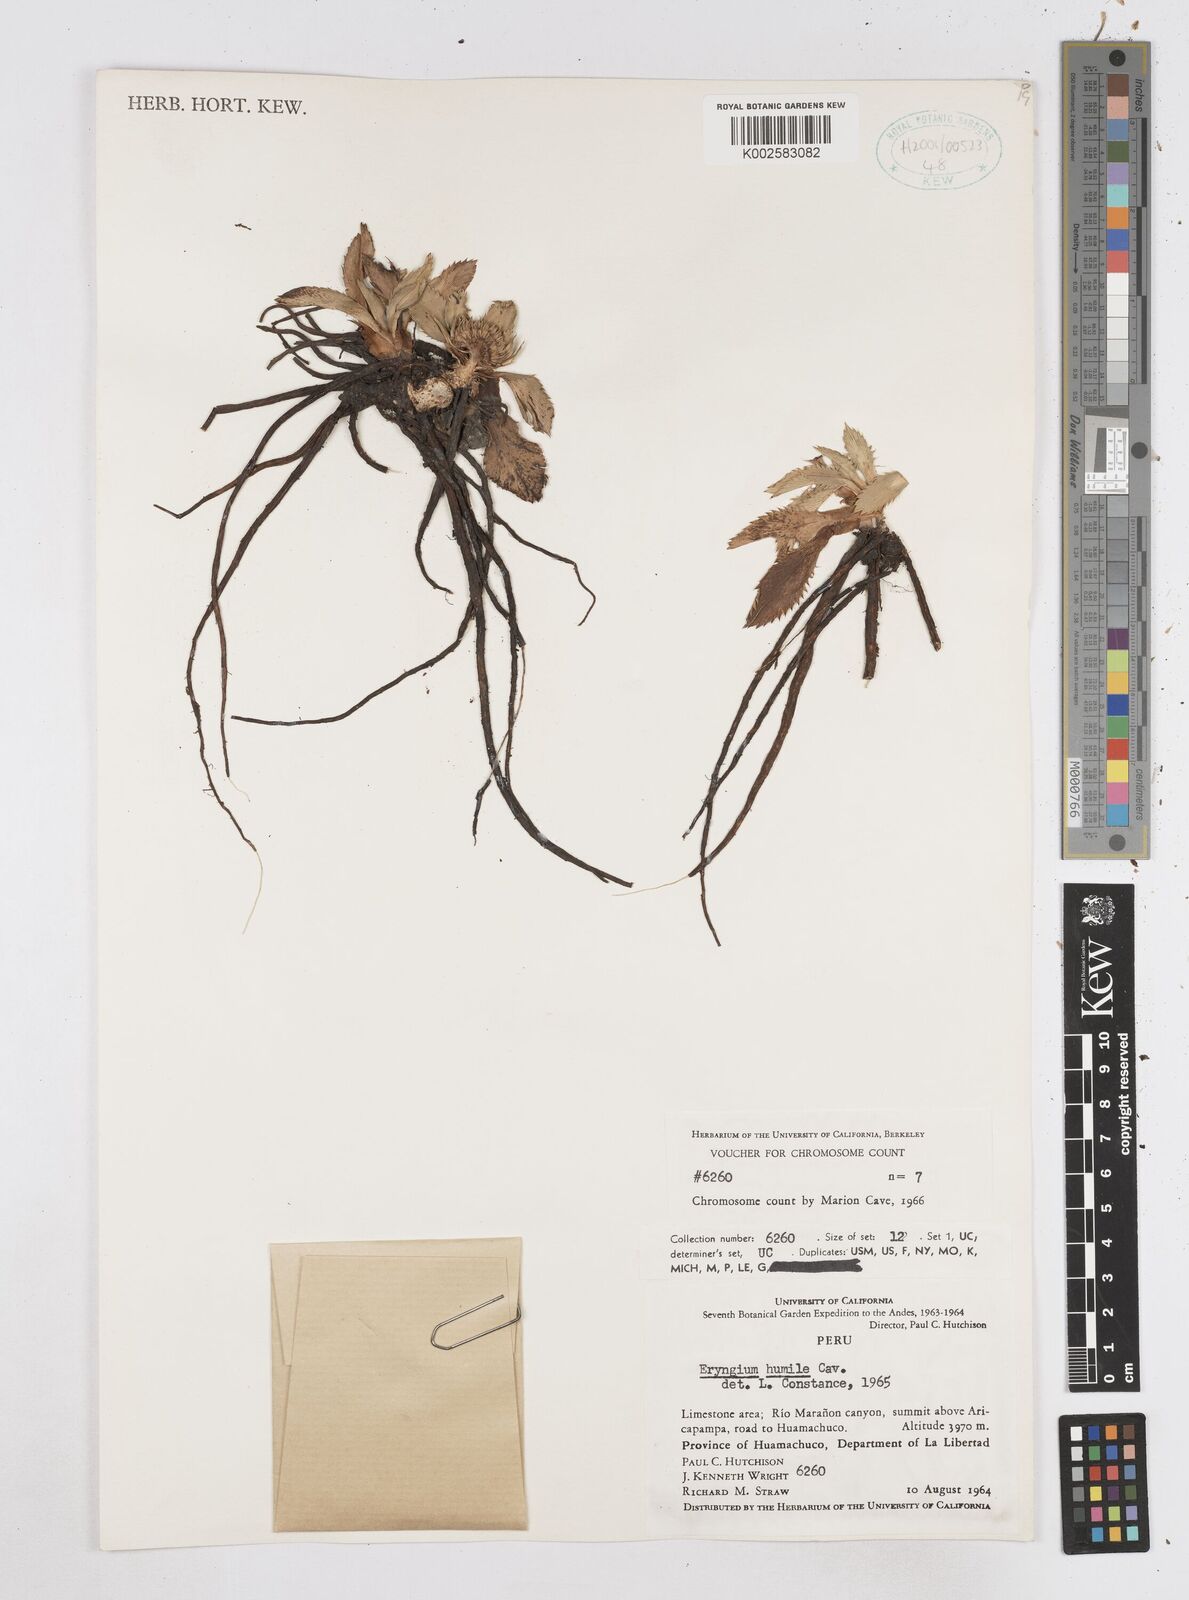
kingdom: Plantae
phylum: Tracheophyta
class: Magnoliopsida
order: Apiales
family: Apiaceae
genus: Eryngium
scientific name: Eryngium humile
